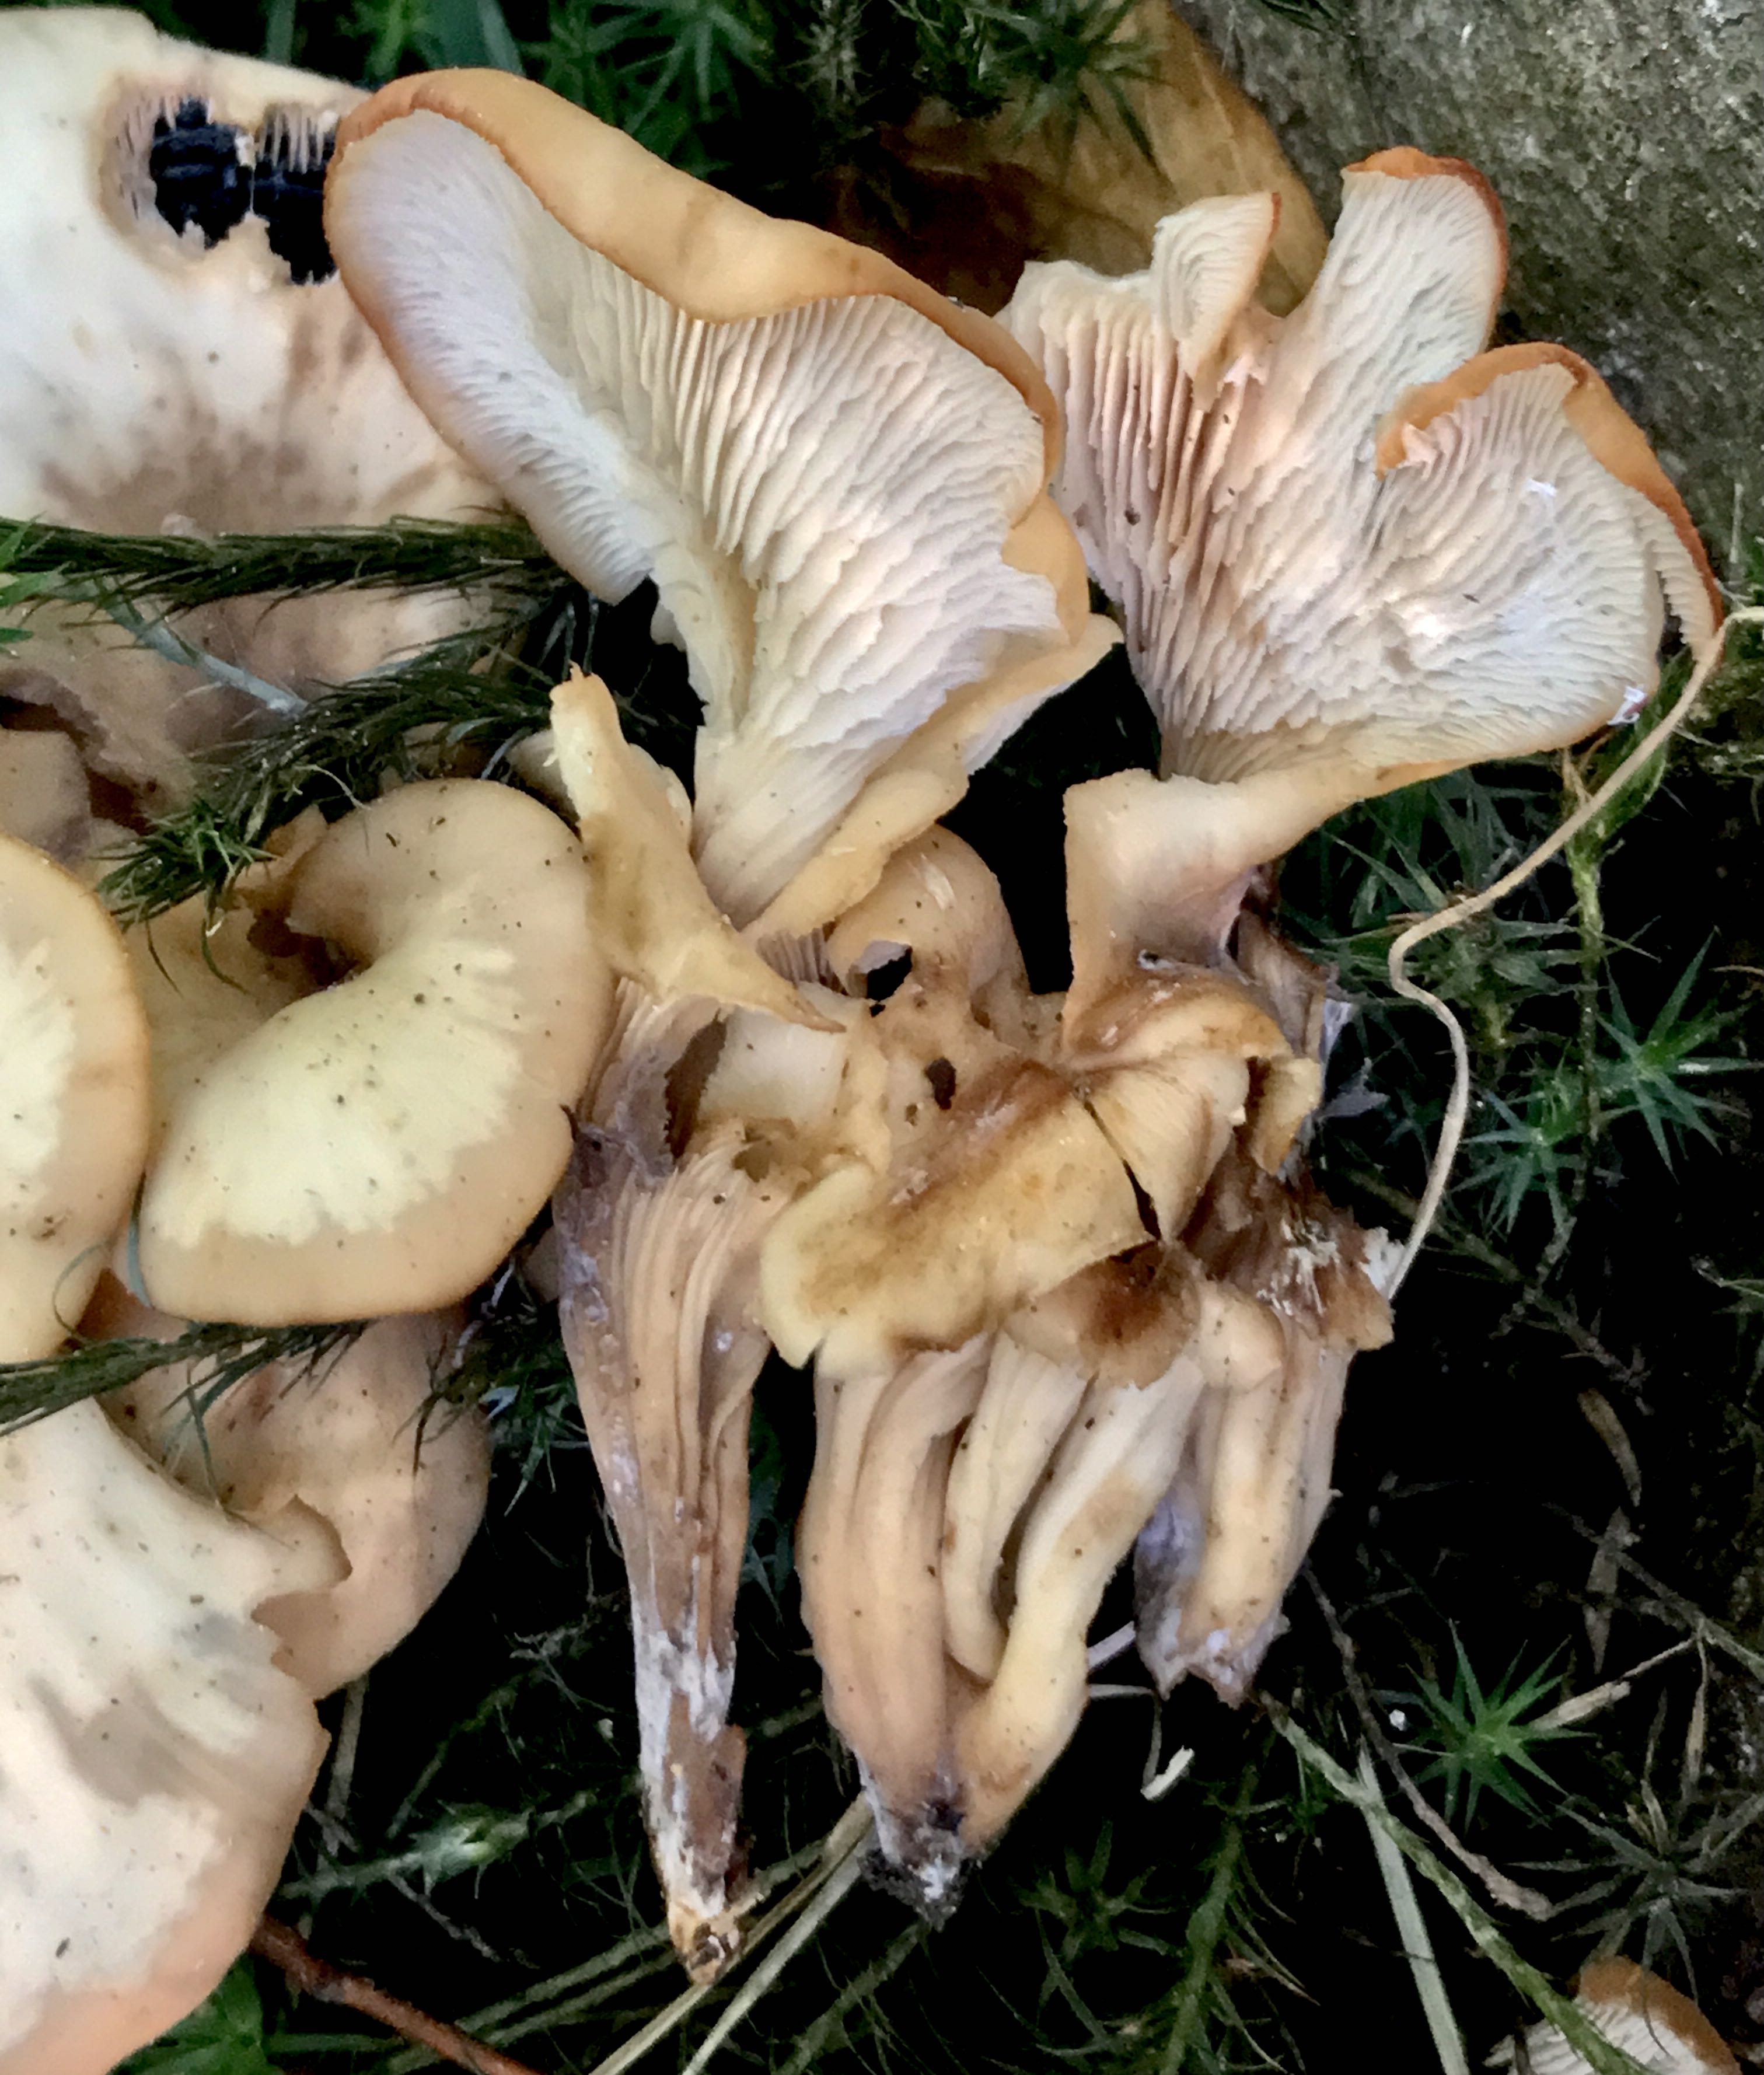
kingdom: Fungi
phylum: Basidiomycota
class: Agaricomycetes
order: Russulales
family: Auriscalpiaceae
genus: Lentinellus
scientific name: Lentinellus cochleatus
